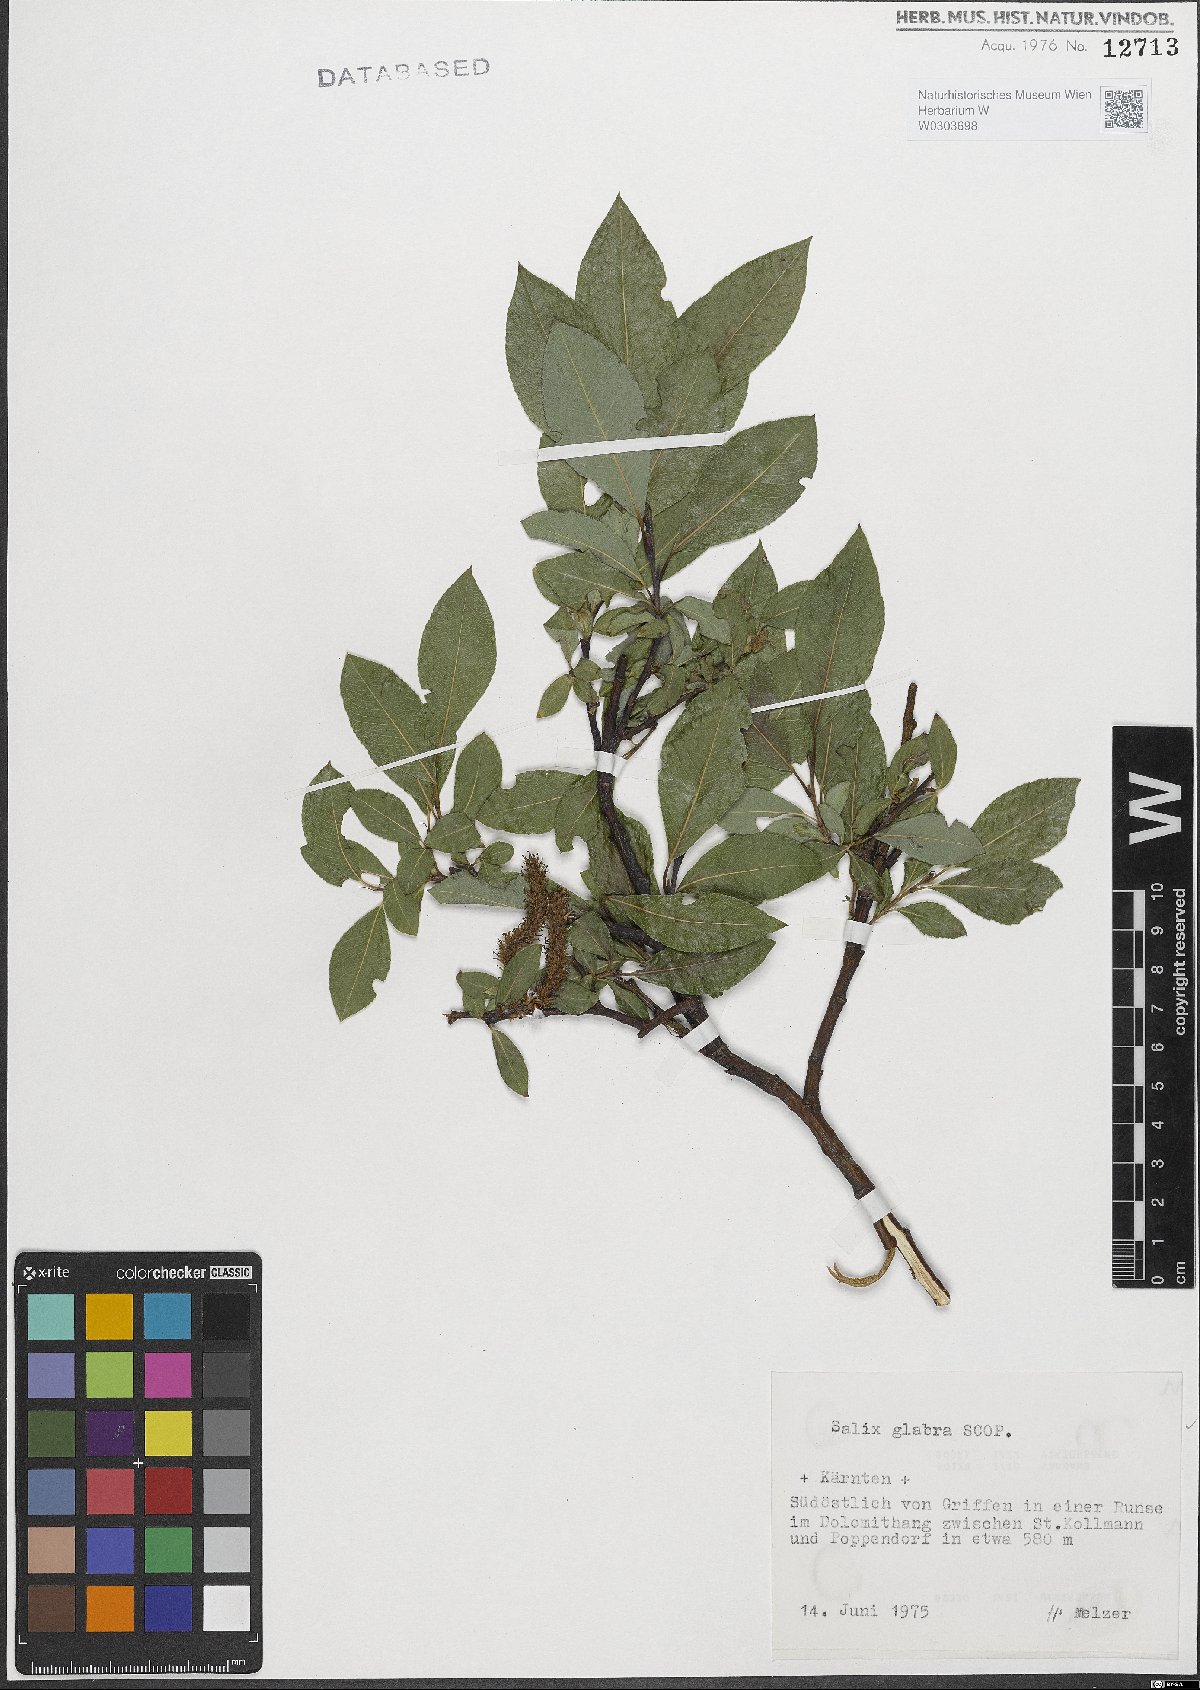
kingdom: Plantae
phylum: Tracheophyta
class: Magnoliopsida
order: Malpighiales
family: Salicaceae
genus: Salix
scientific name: Salix glabra
